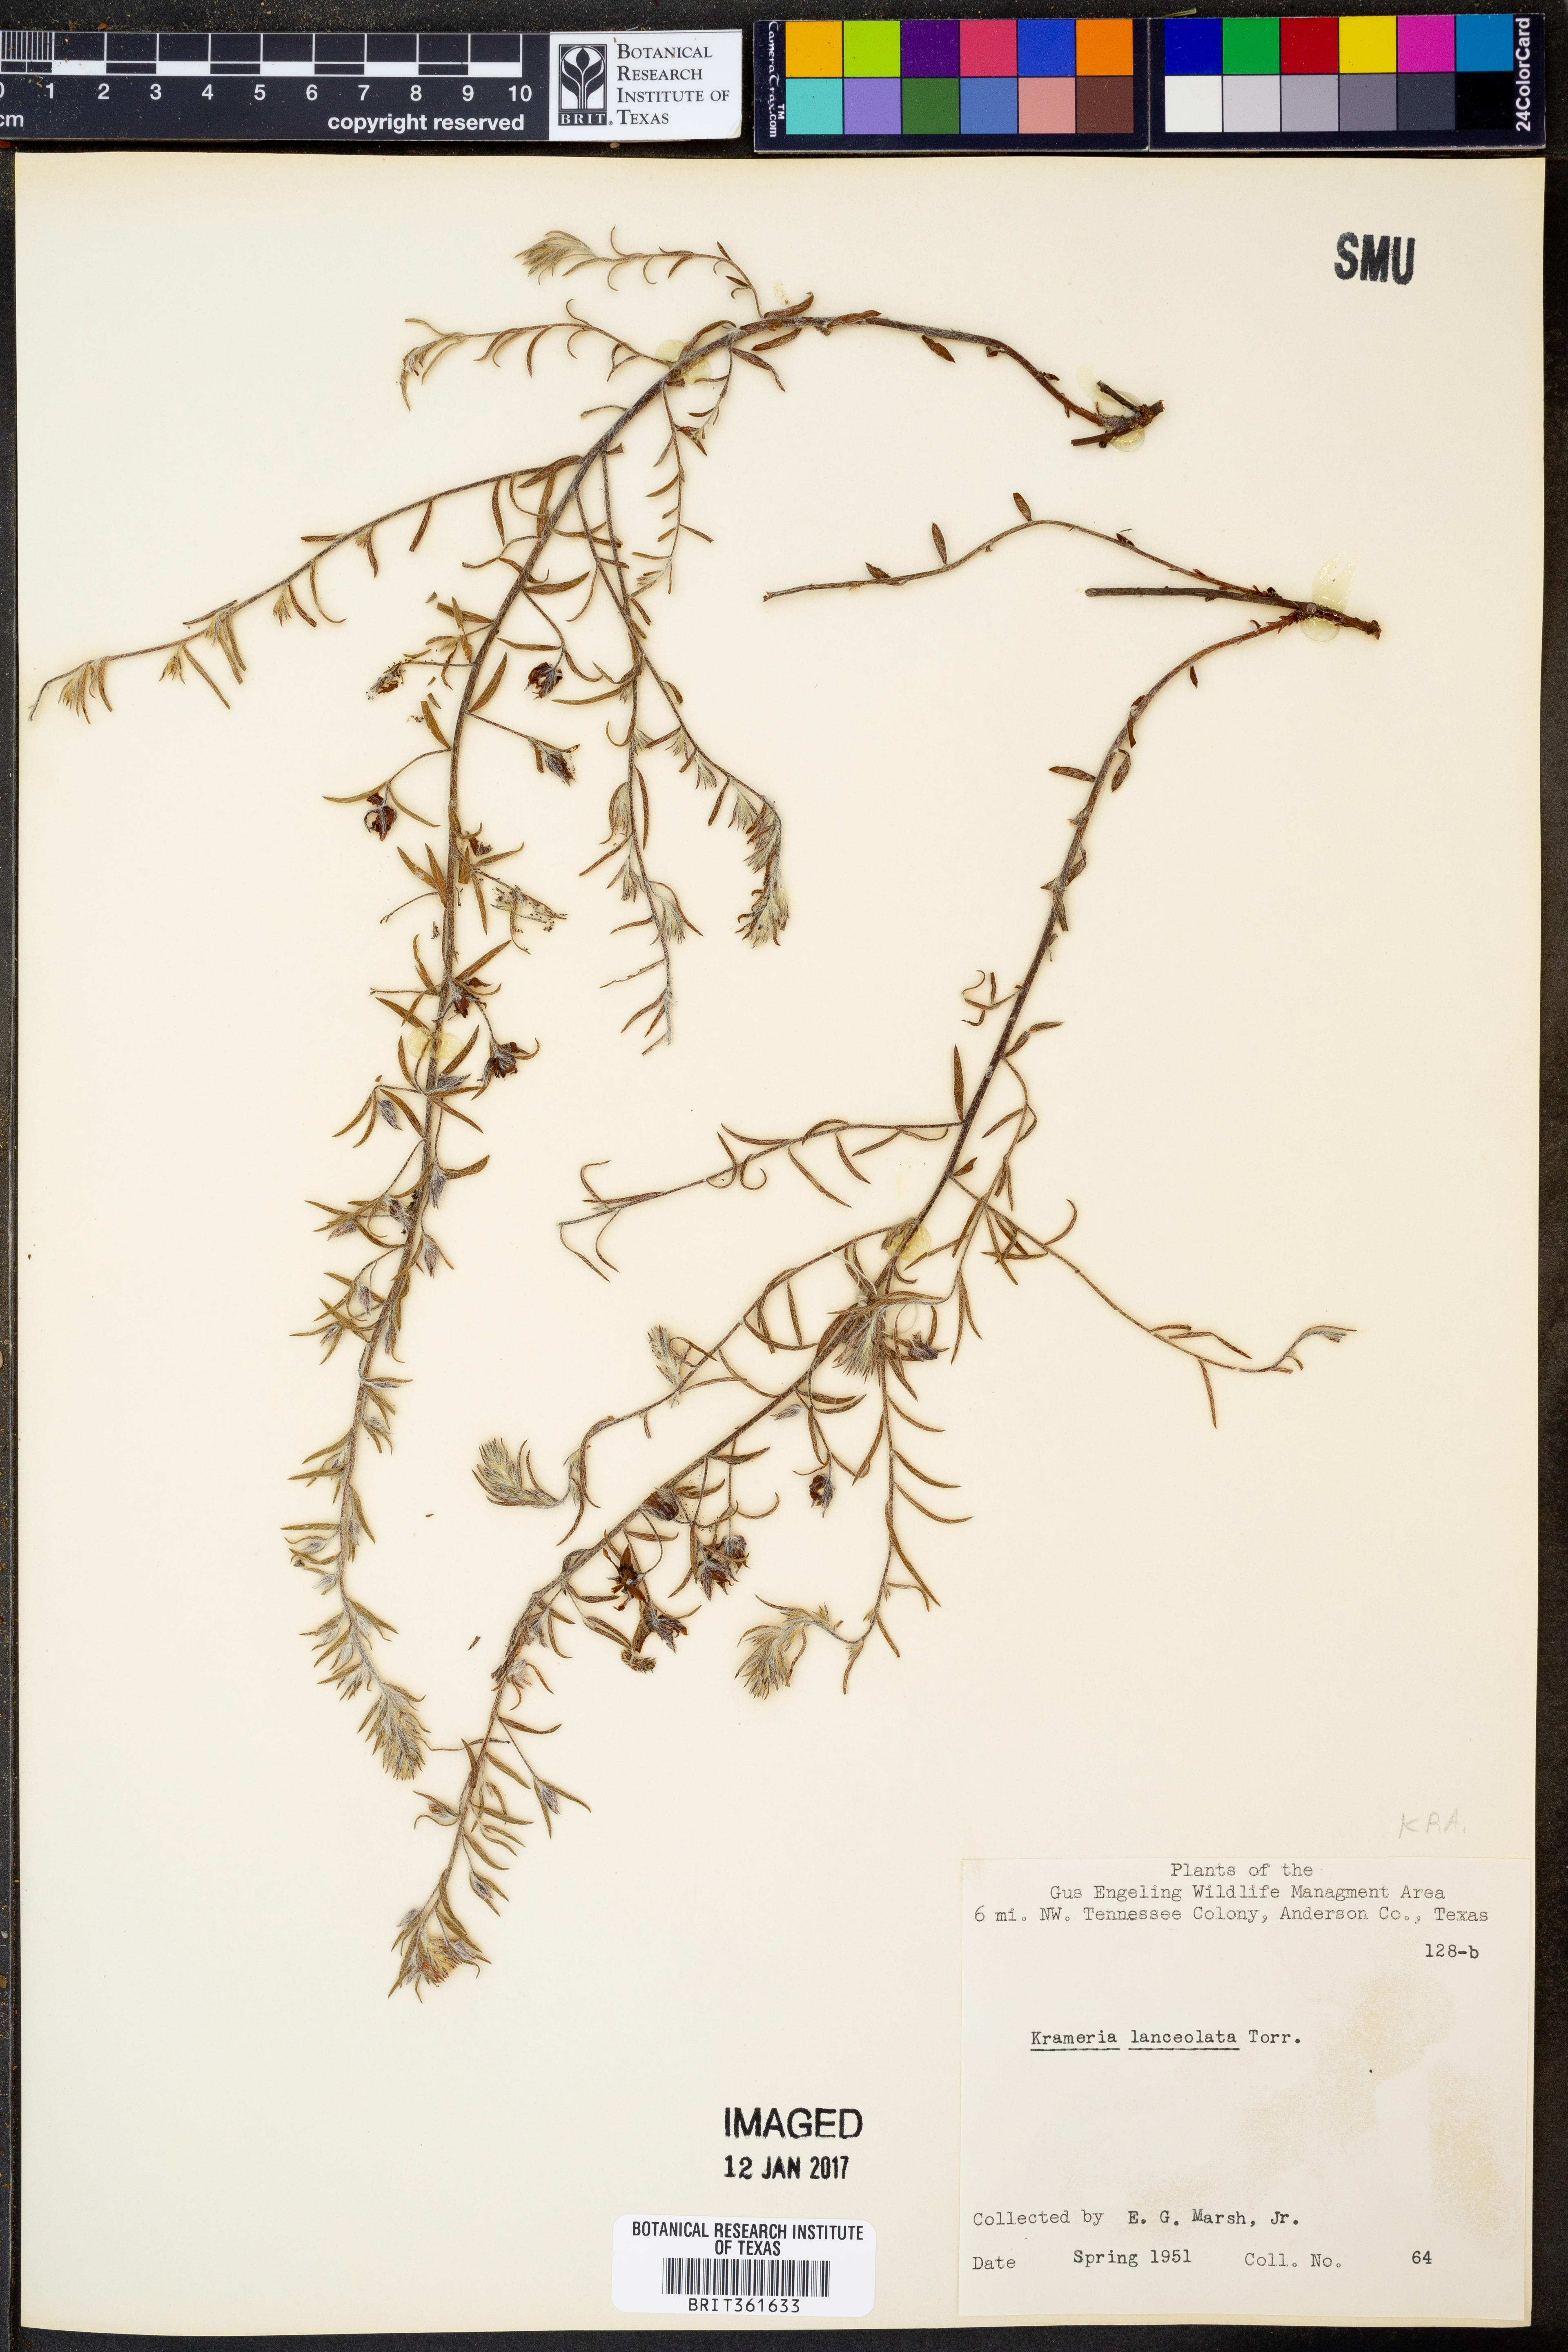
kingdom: Plantae
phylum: Tracheophyta
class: Magnoliopsida
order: Zygophyllales
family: Krameriaceae
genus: Krameria
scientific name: Krameria lanceolata
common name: Ratany
